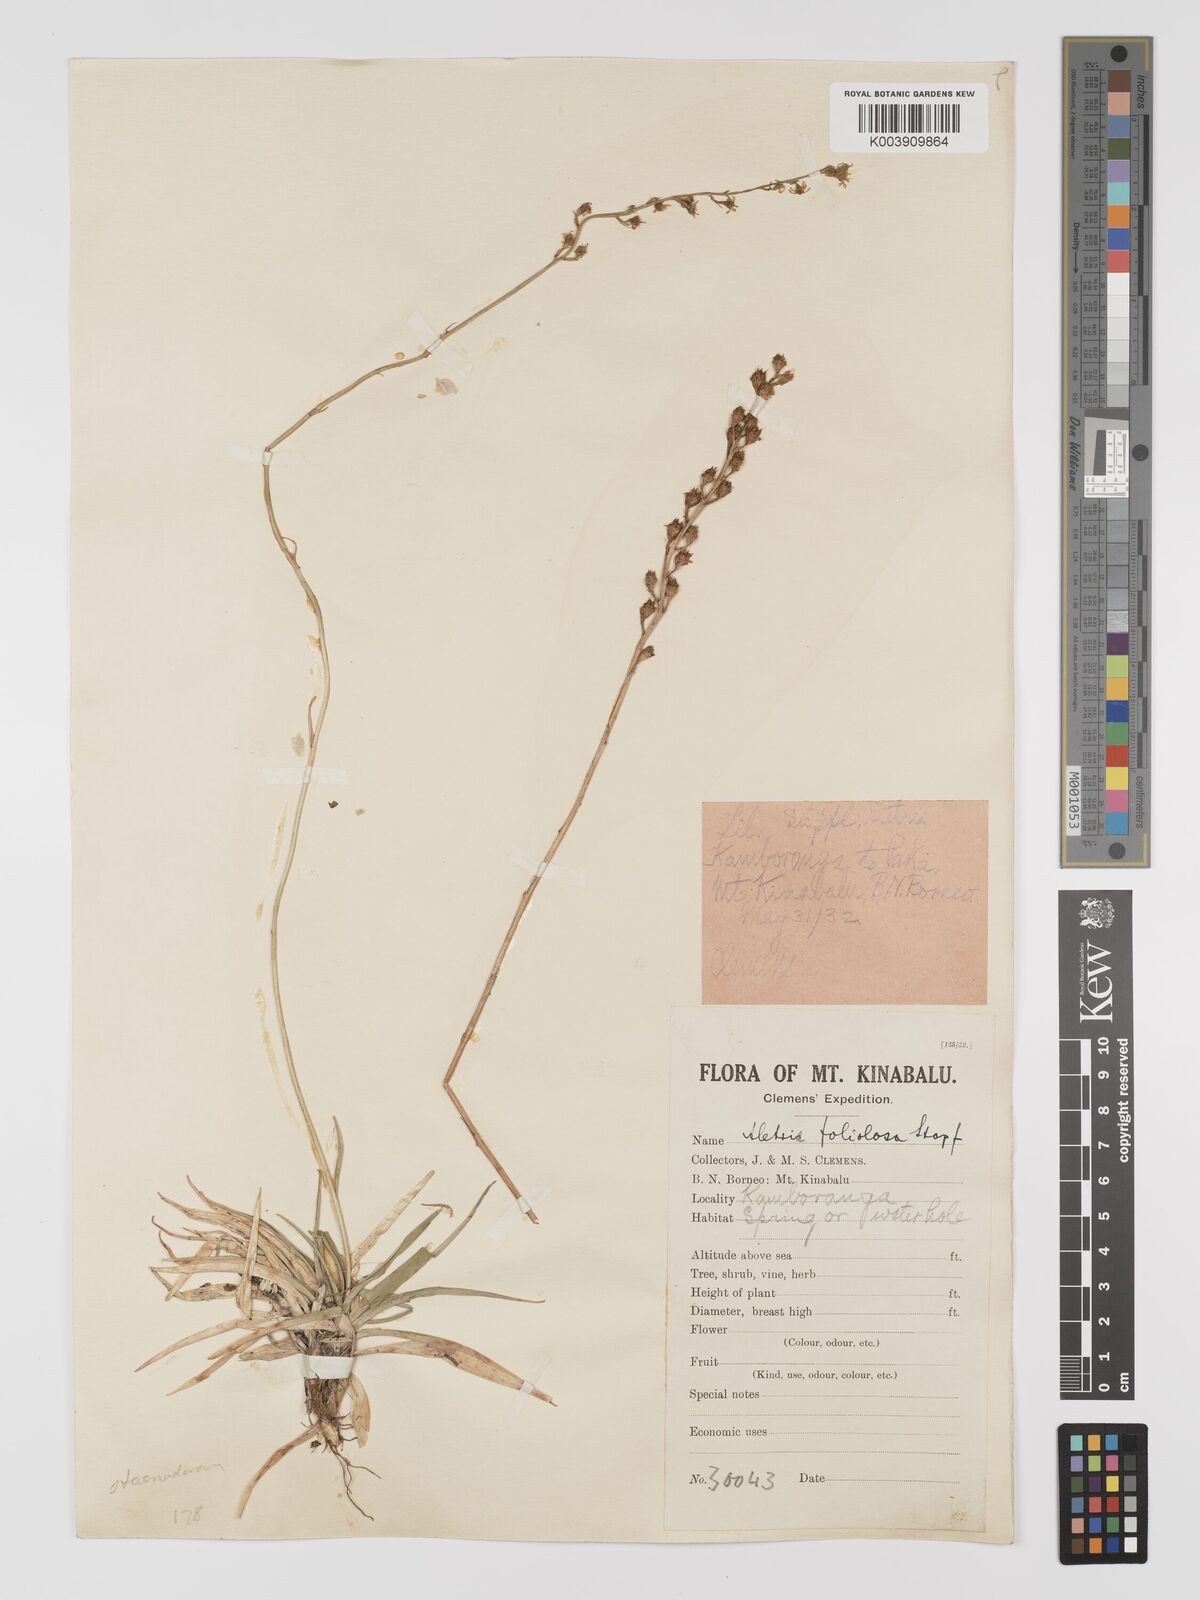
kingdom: Plantae
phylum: Tracheophyta
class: Liliopsida
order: Dioscoreales
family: Nartheciaceae
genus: Aletris
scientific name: Aletris foliolosa
